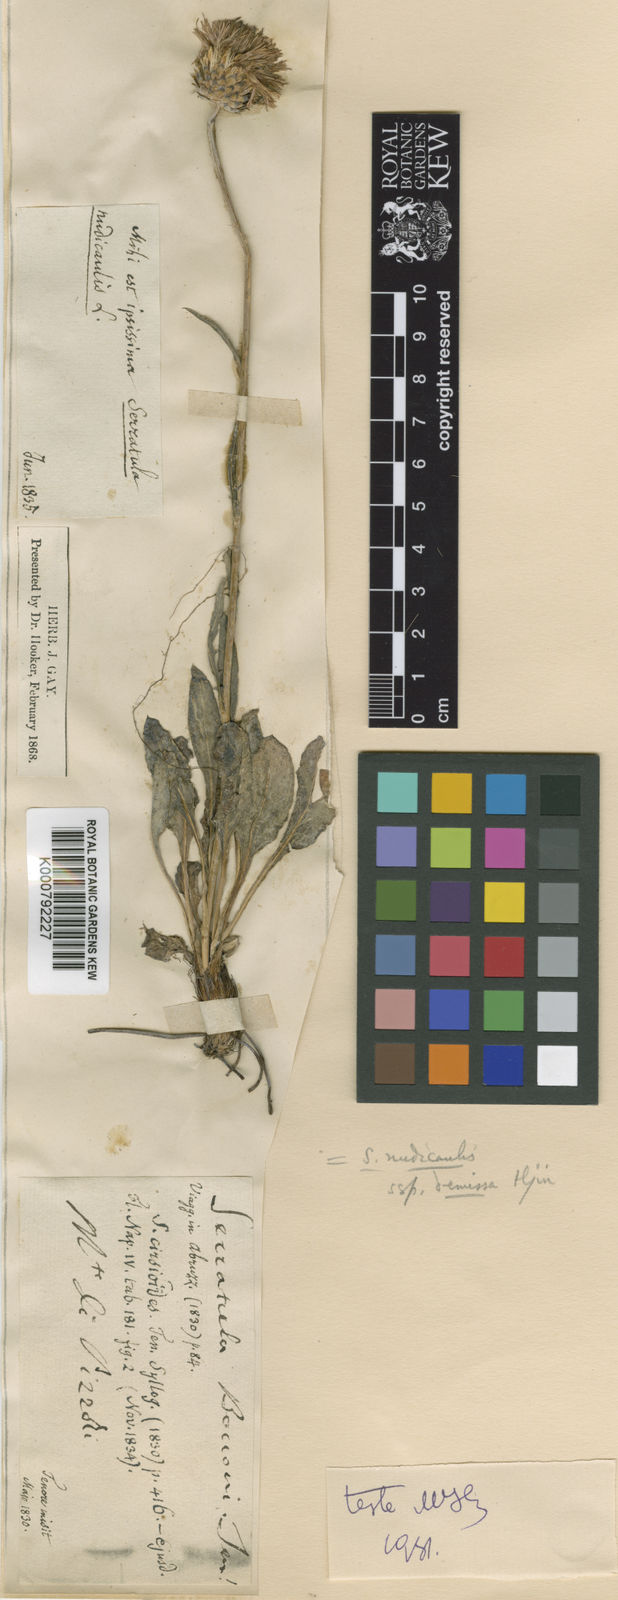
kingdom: Plantae
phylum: Tracheophyta
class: Magnoliopsida
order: Asterales
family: Asteraceae
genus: Klasea
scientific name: Klasea nudicaulis
